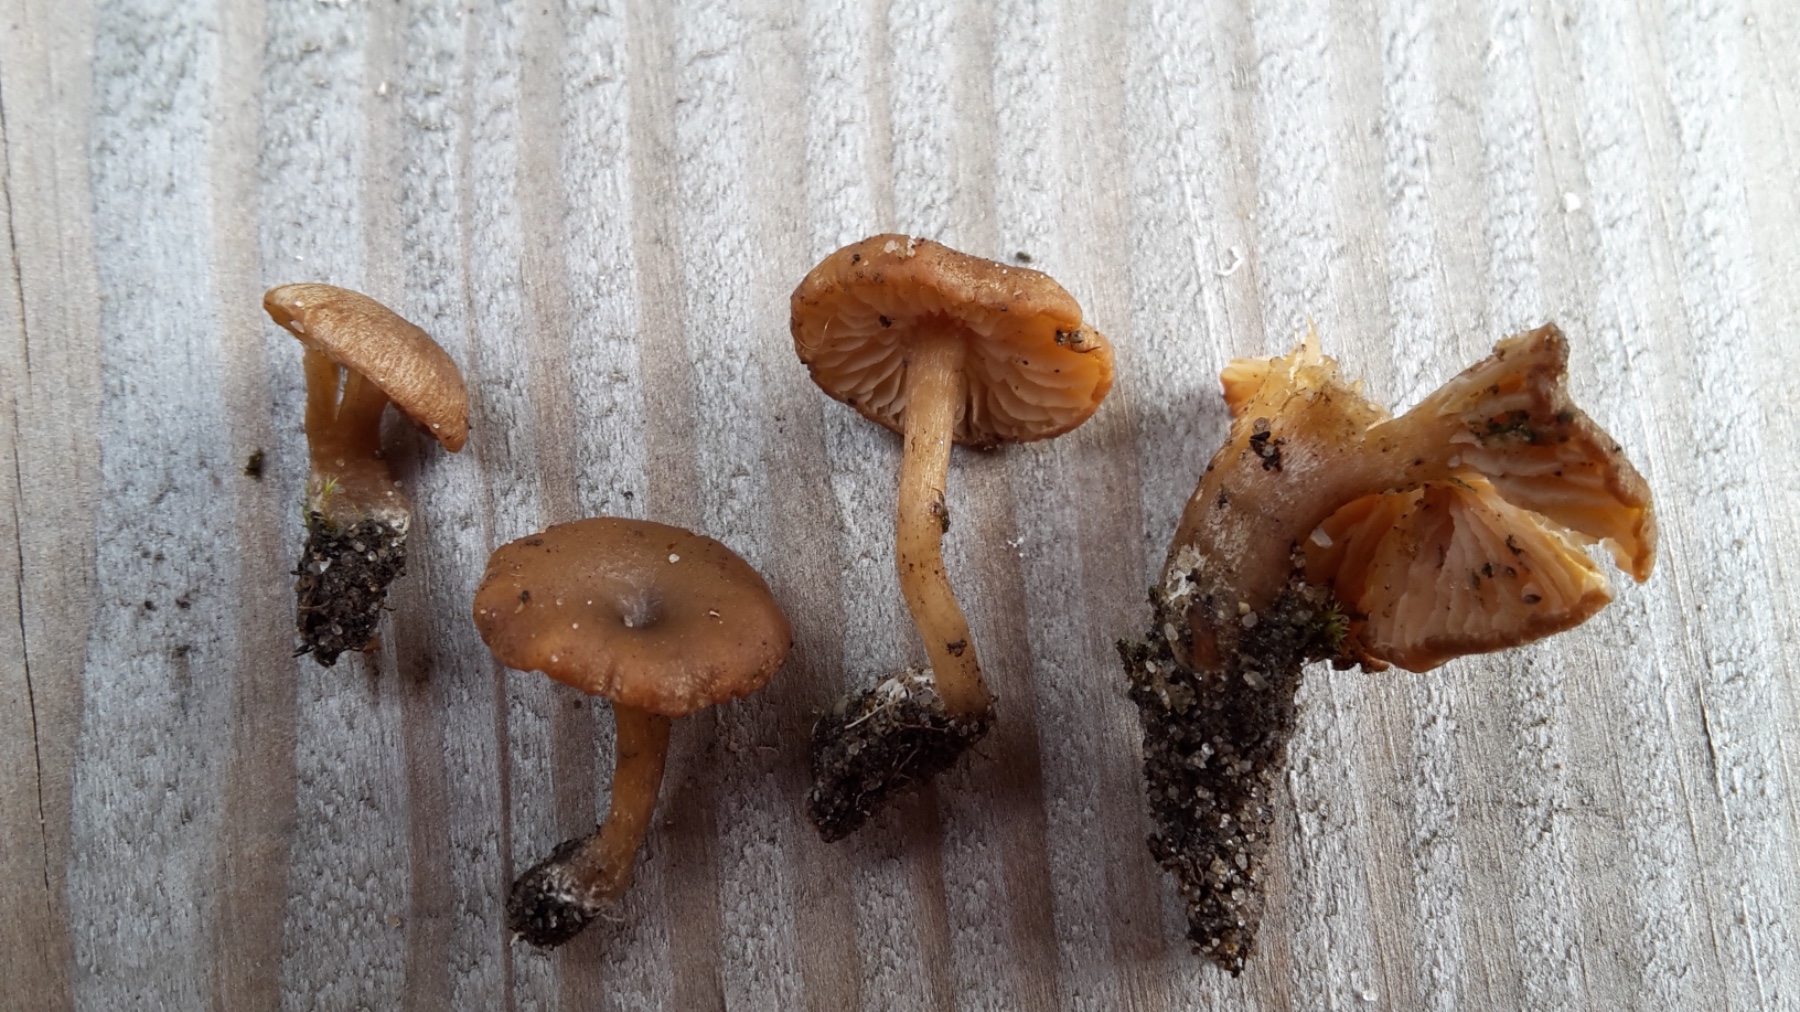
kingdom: Fungi
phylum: Basidiomycota
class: Agaricomycetes
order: Agaricales
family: Callistosporiaceae
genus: Pseudolaccaria
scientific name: Pseudolaccaria pachyphylla
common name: hvælvet tykblad
